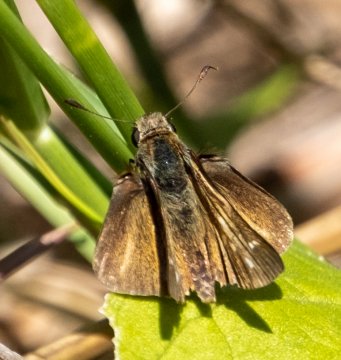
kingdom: Animalia
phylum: Arthropoda
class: Insecta
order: Lepidoptera
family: Hesperiidae
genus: Panoquina
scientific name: Panoquina panoquin
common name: Salt Marsh Skipper
